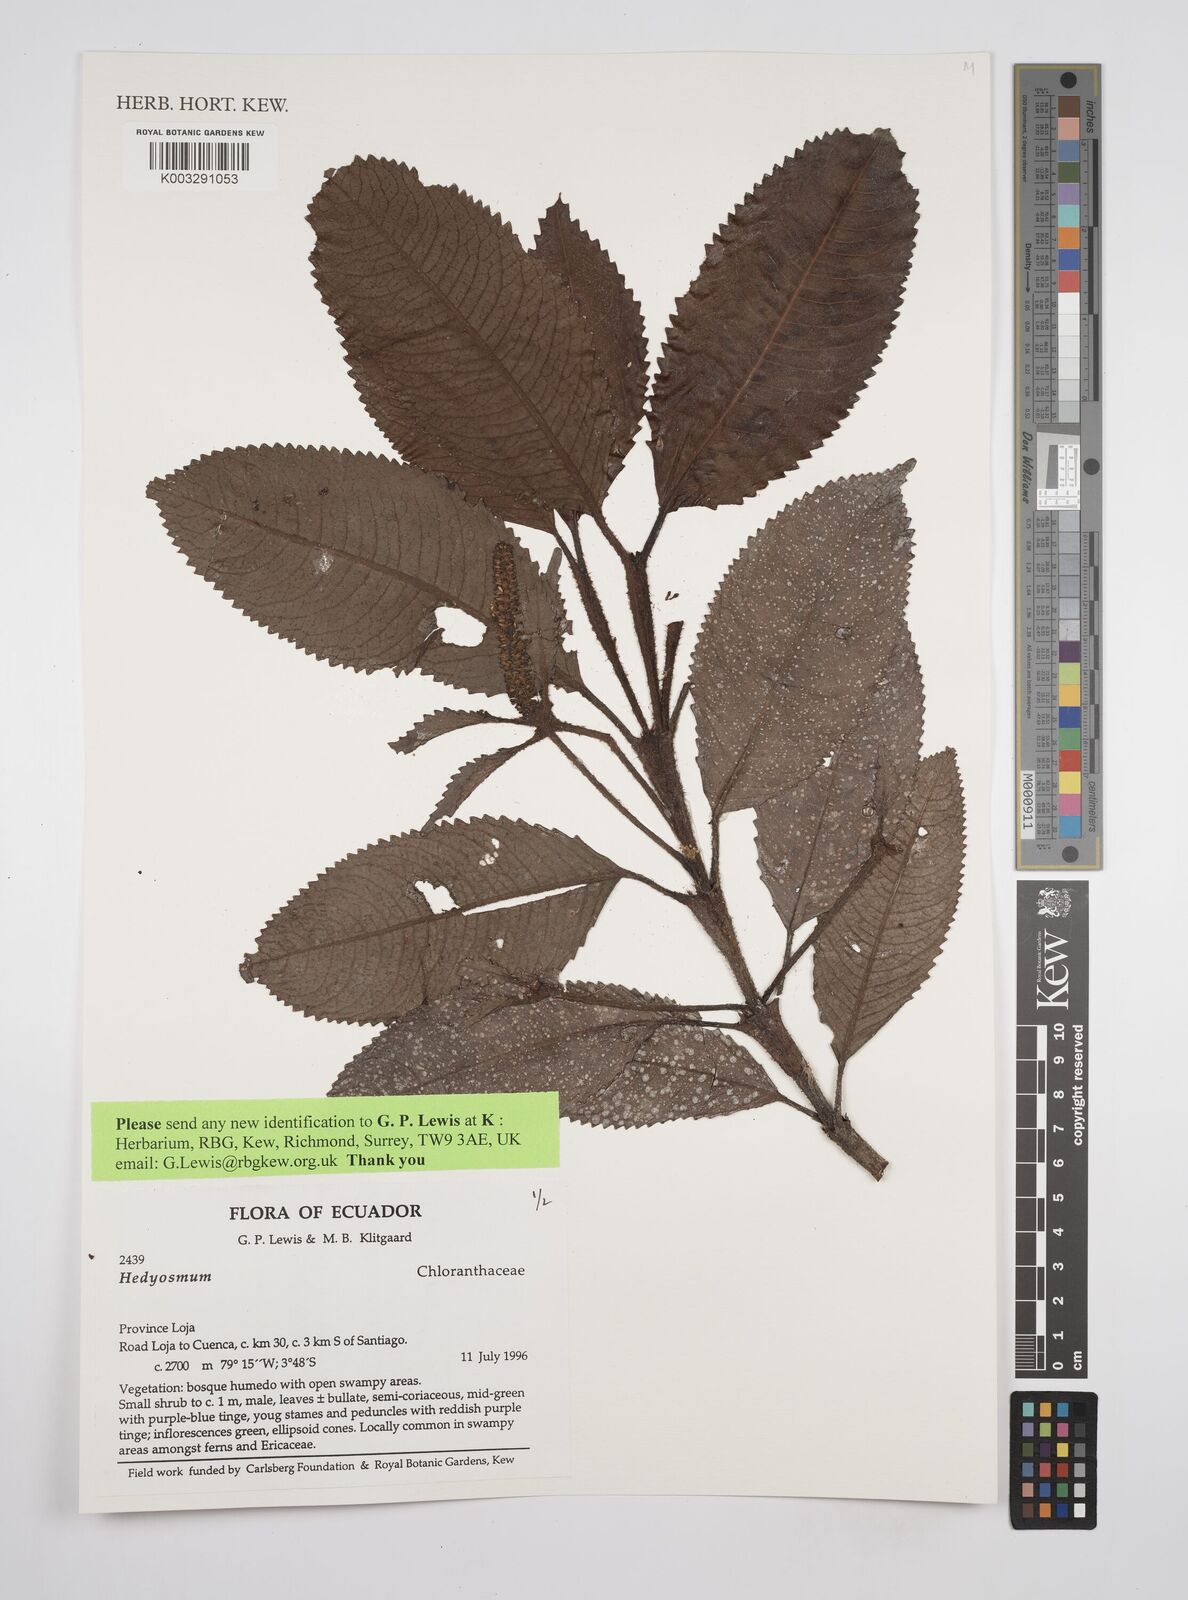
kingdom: Plantae
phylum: Tracheophyta
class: Magnoliopsida
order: Chloranthales
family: Chloranthaceae
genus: Hedyosmum
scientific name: Hedyosmum
